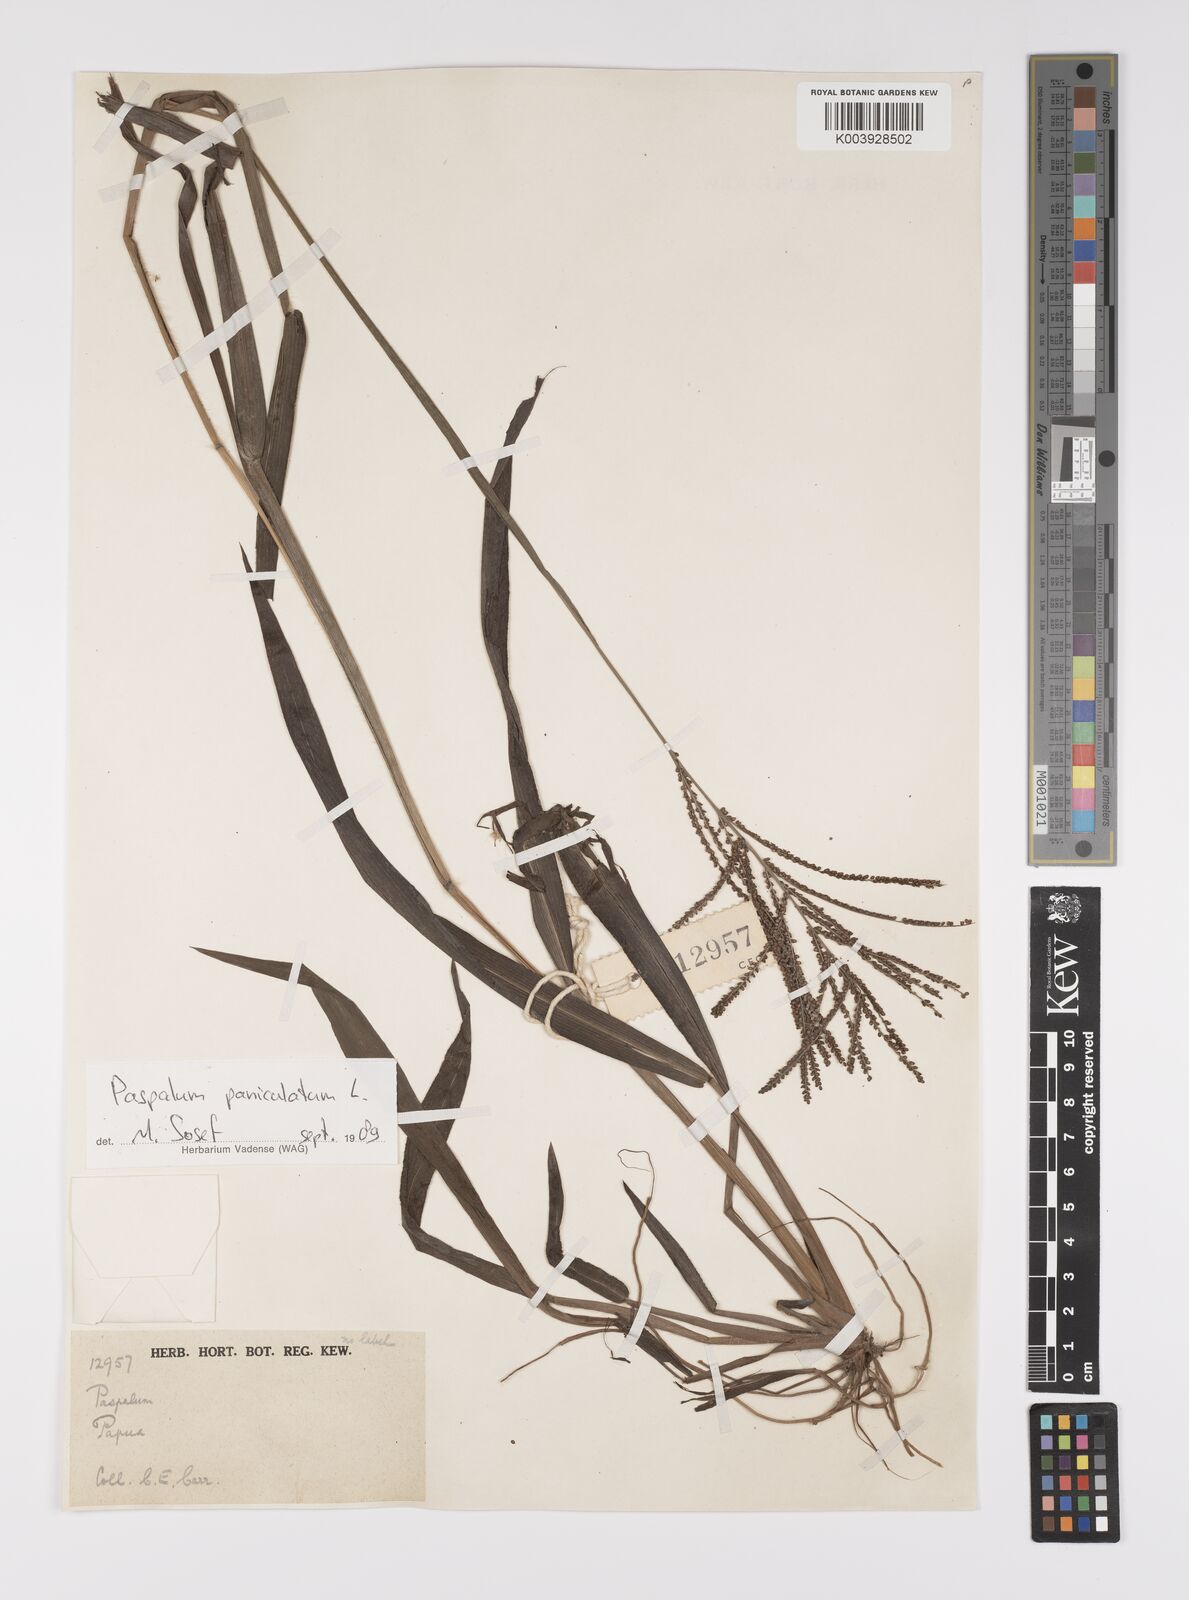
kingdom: Plantae
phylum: Tracheophyta
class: Liliopsida
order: Poales
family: Poaceae
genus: Paspalum
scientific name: Paspalum paniculatum
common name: Arrocillo
